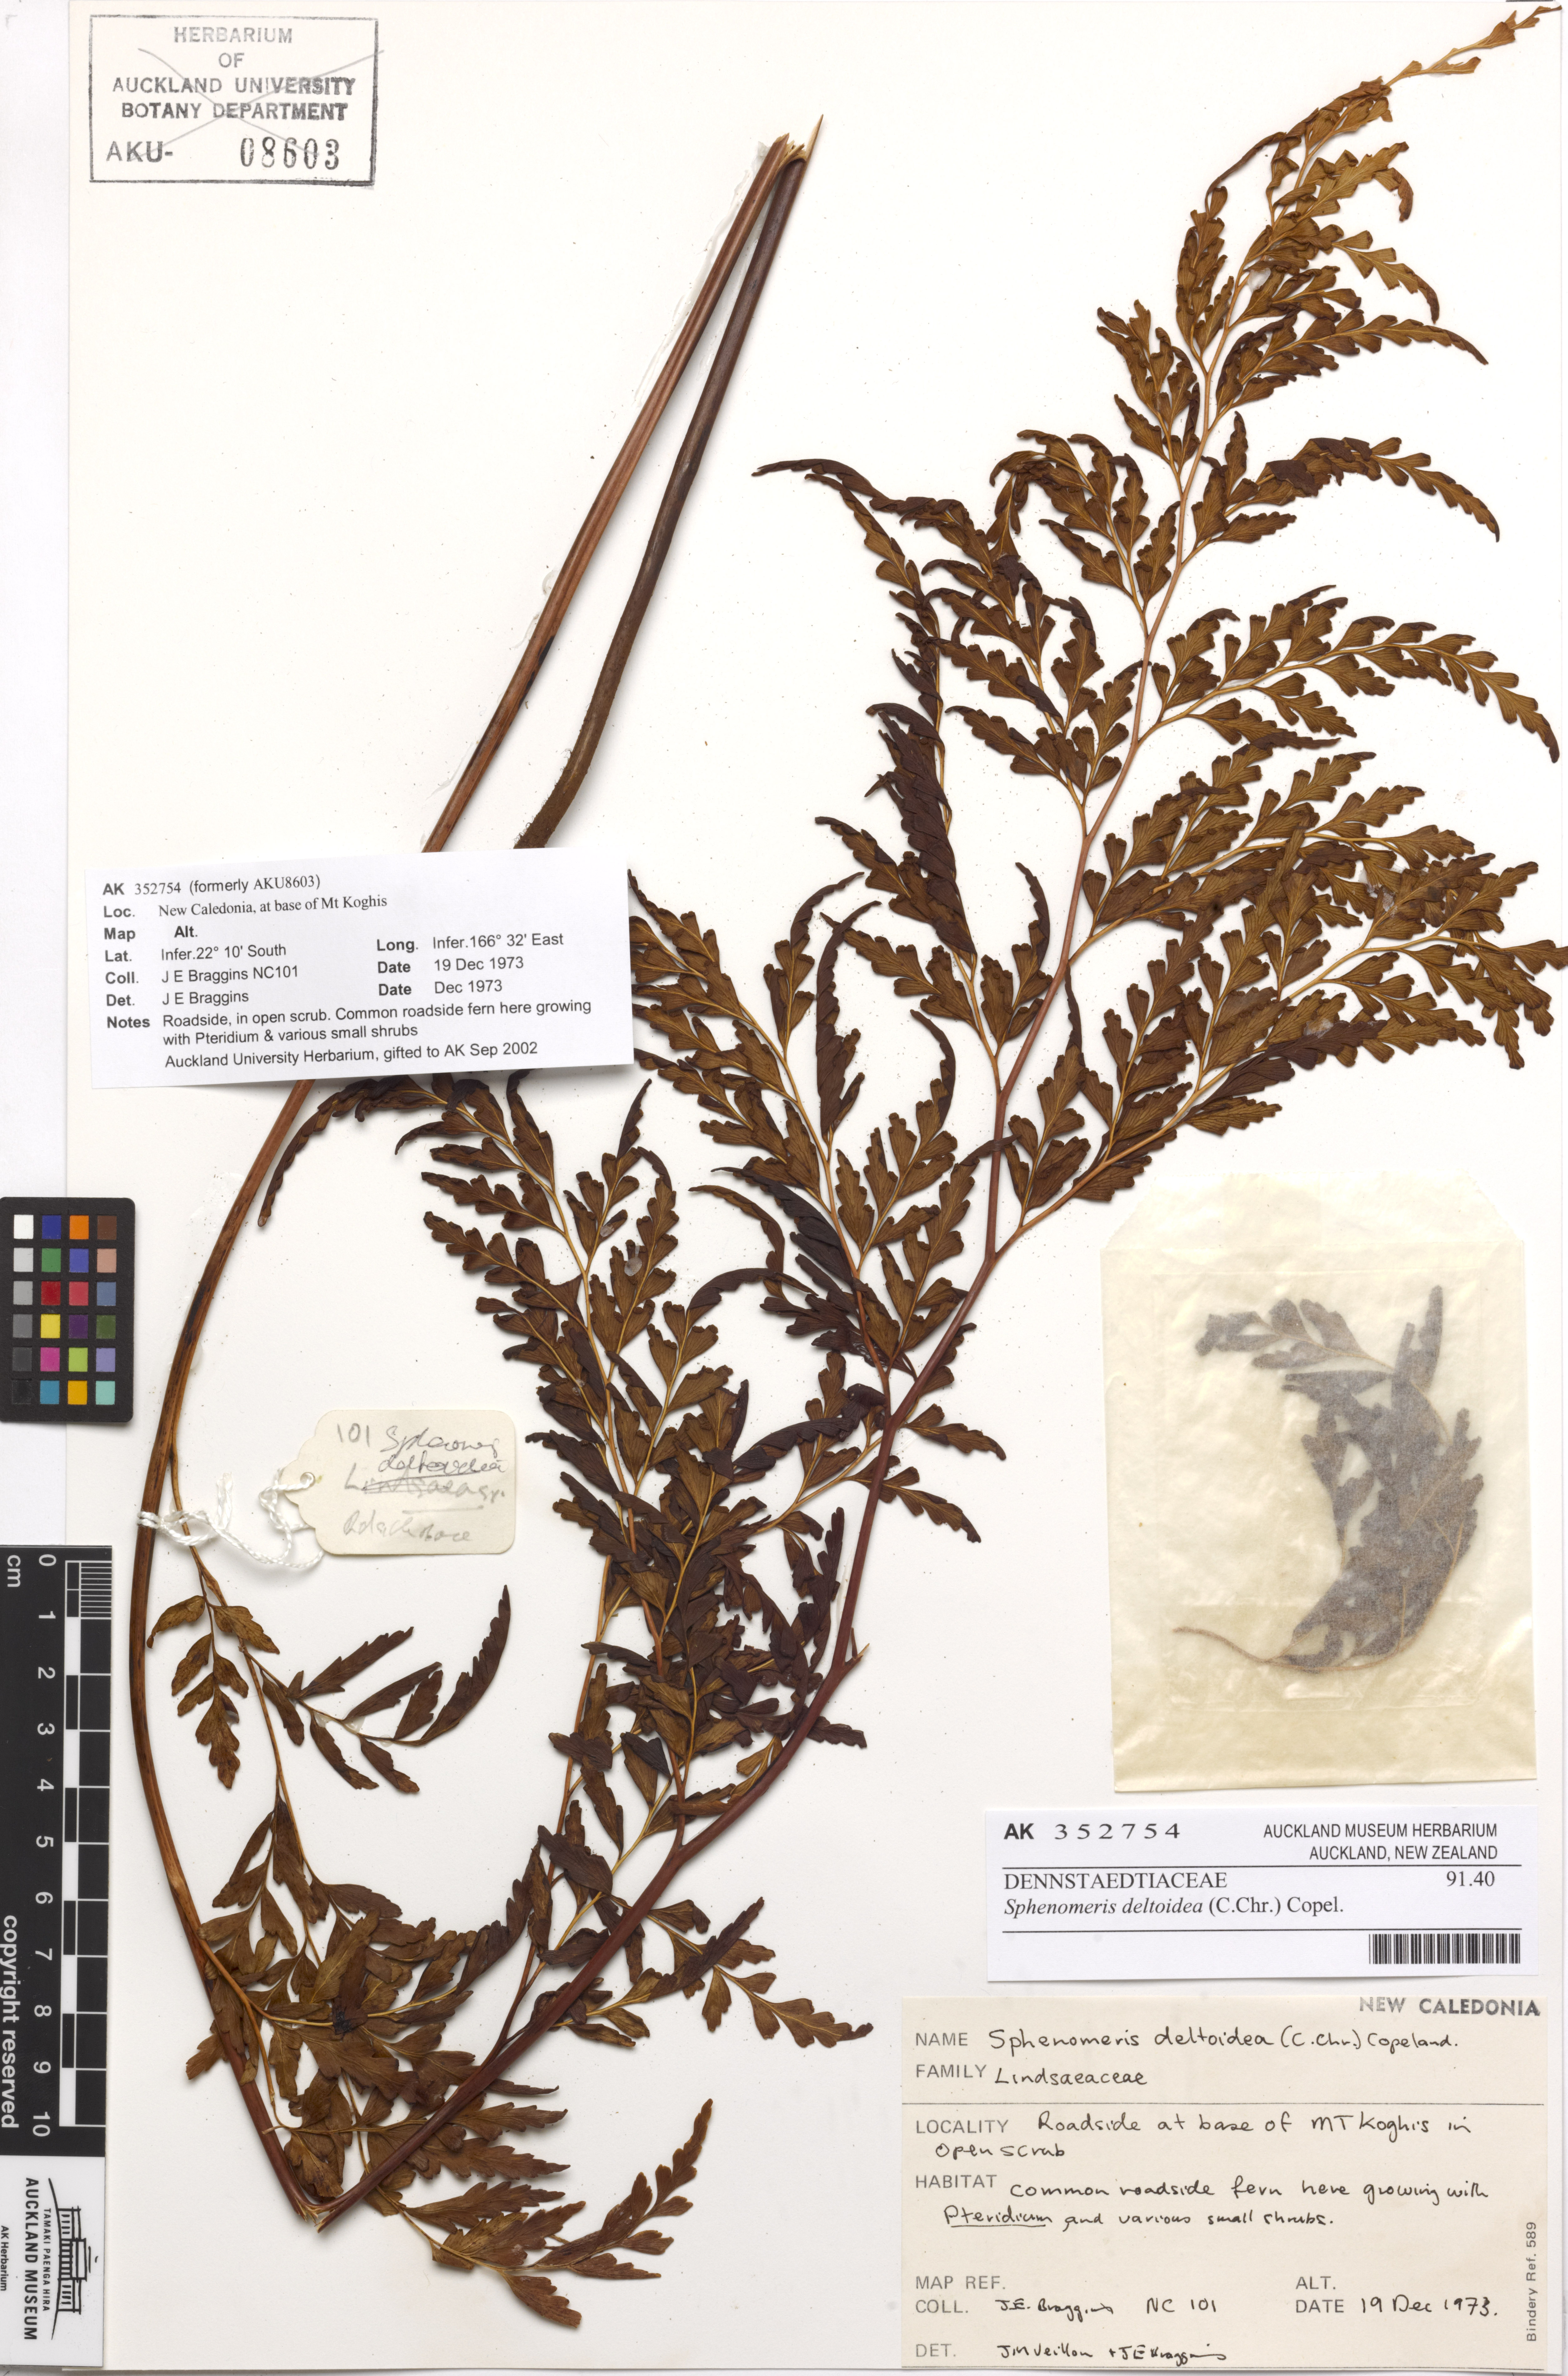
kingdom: Plantae
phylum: Tracheophyta
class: Polypodiopsida
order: Polypodiales
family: Lindsaeaceae
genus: Odontosoria
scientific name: Odontosoria deltoidea
